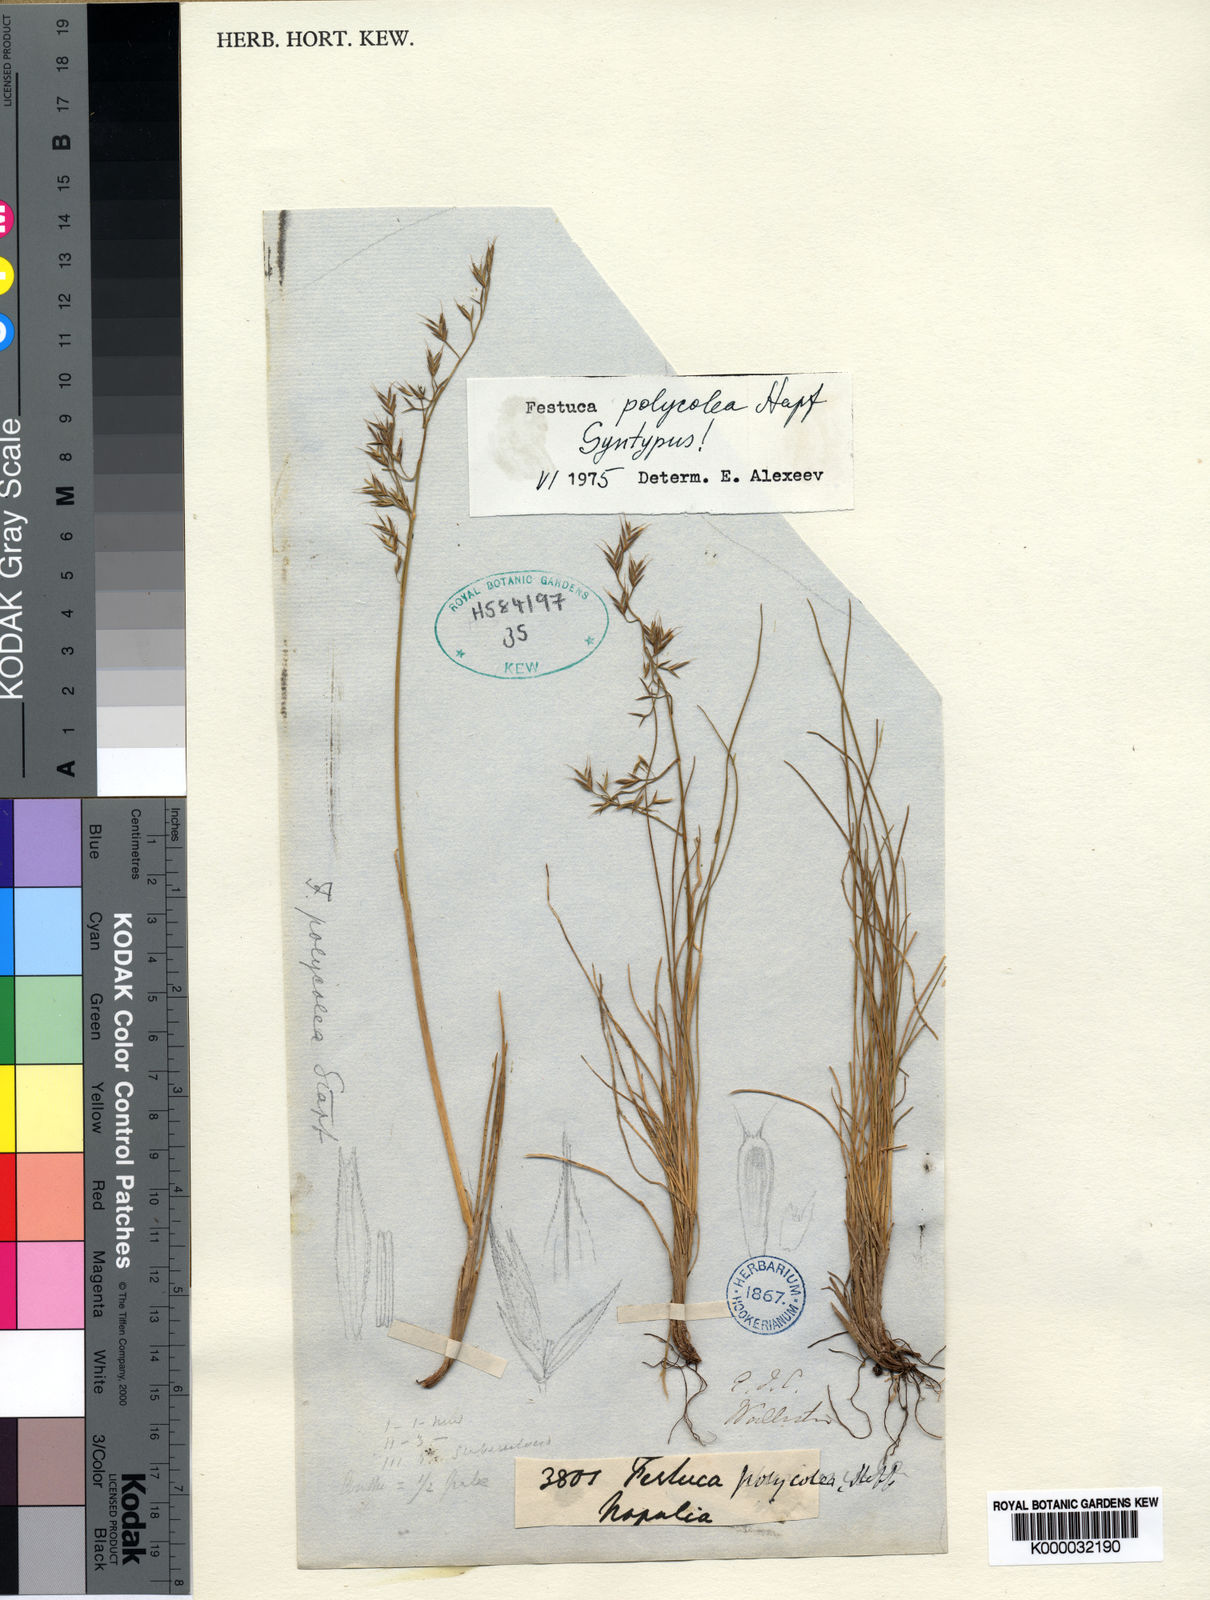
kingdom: Plantae
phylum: Tracheophyta
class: Liliopsida
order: Poales
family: Poaceae
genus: Festuca
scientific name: Festuca polycolea
